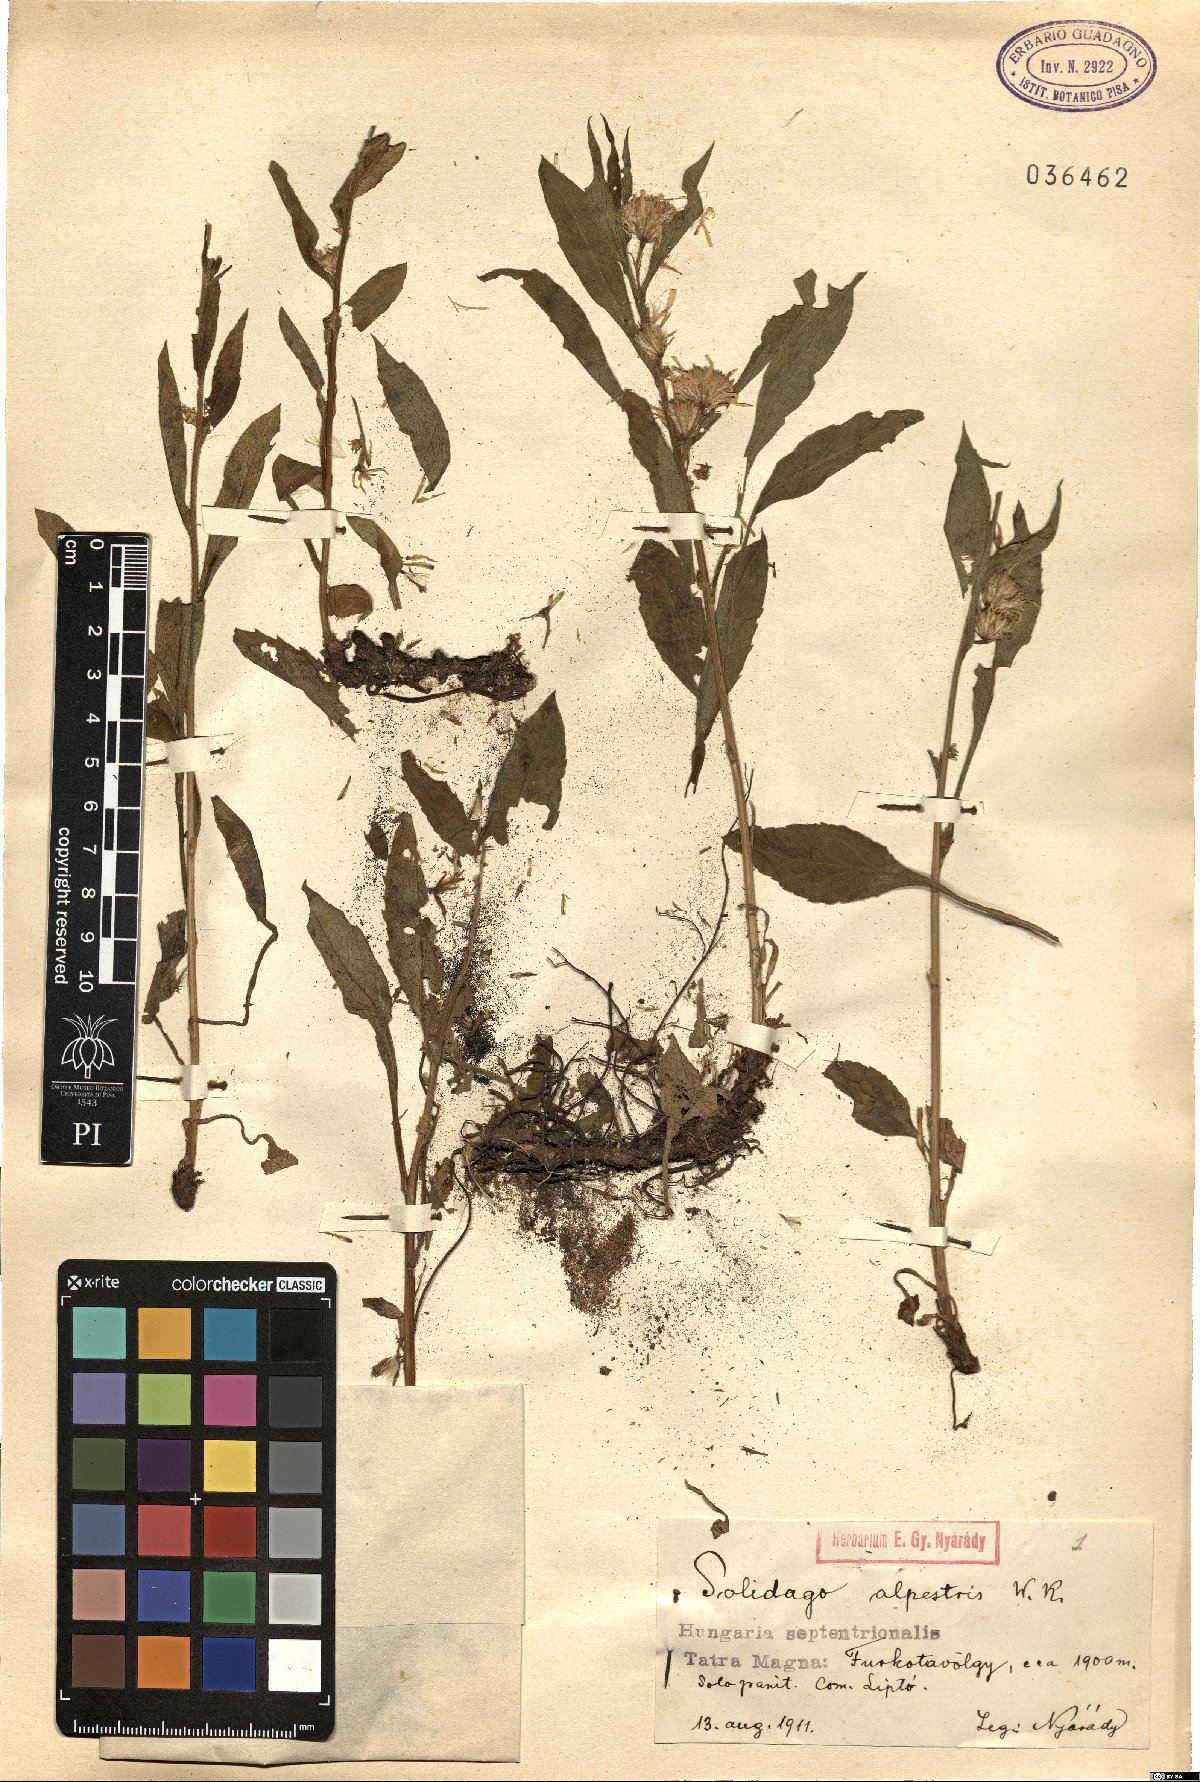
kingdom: Plantae
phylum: Tracheophyta
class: Magnoliopsida
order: Asterales
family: Asteraceae
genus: Solidago
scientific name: Solidago virgaurea
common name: Goldenrod
